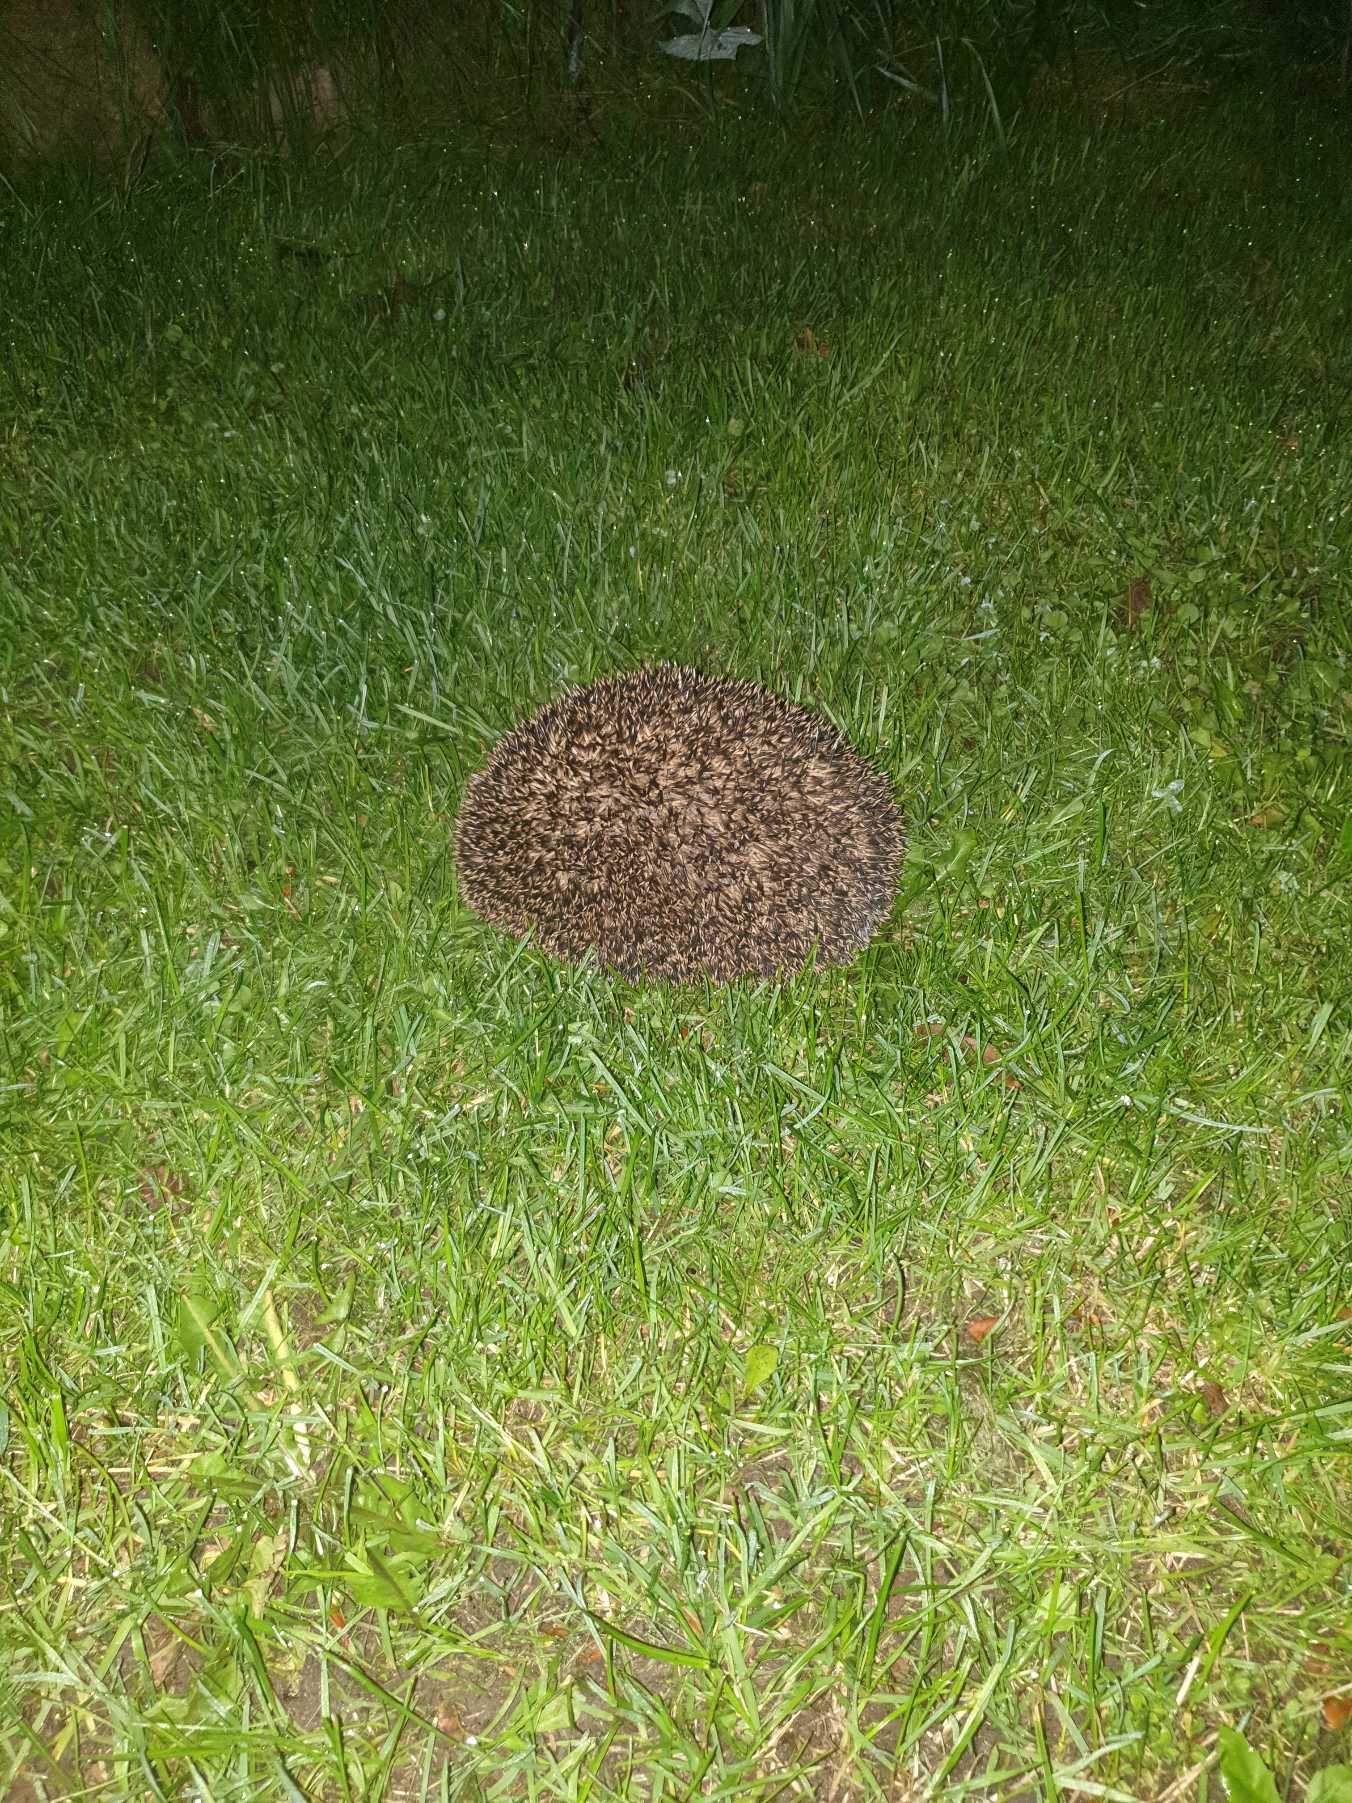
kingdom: Animalia
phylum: Chordata
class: Mammalia
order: Erinaceomorpha
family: Erinaceidae
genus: Erinaceus
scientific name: Erinaceus europaeus
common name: Pindsvin
